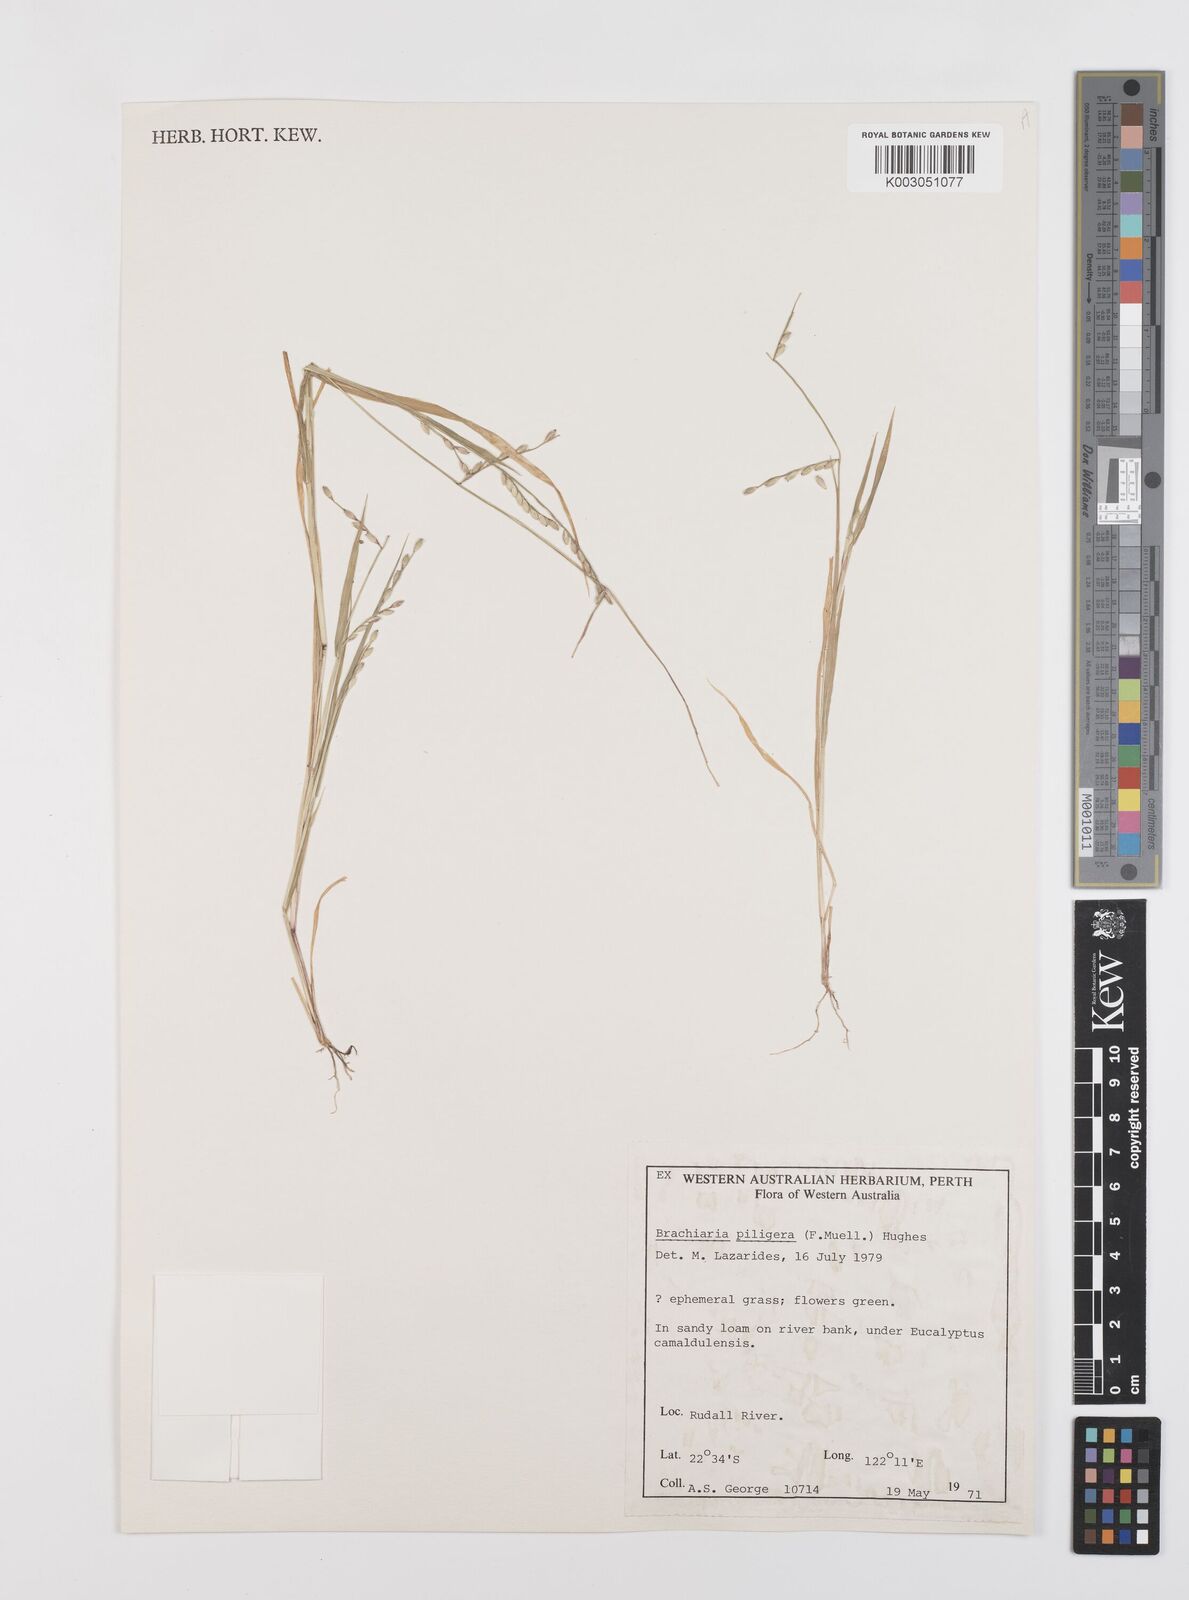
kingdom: Plantae
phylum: Tracheophyta
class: Liliopsida
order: Poales
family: Poaceae
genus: Urochloa
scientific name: Urochloa piligera
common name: Wattle signalgrass
